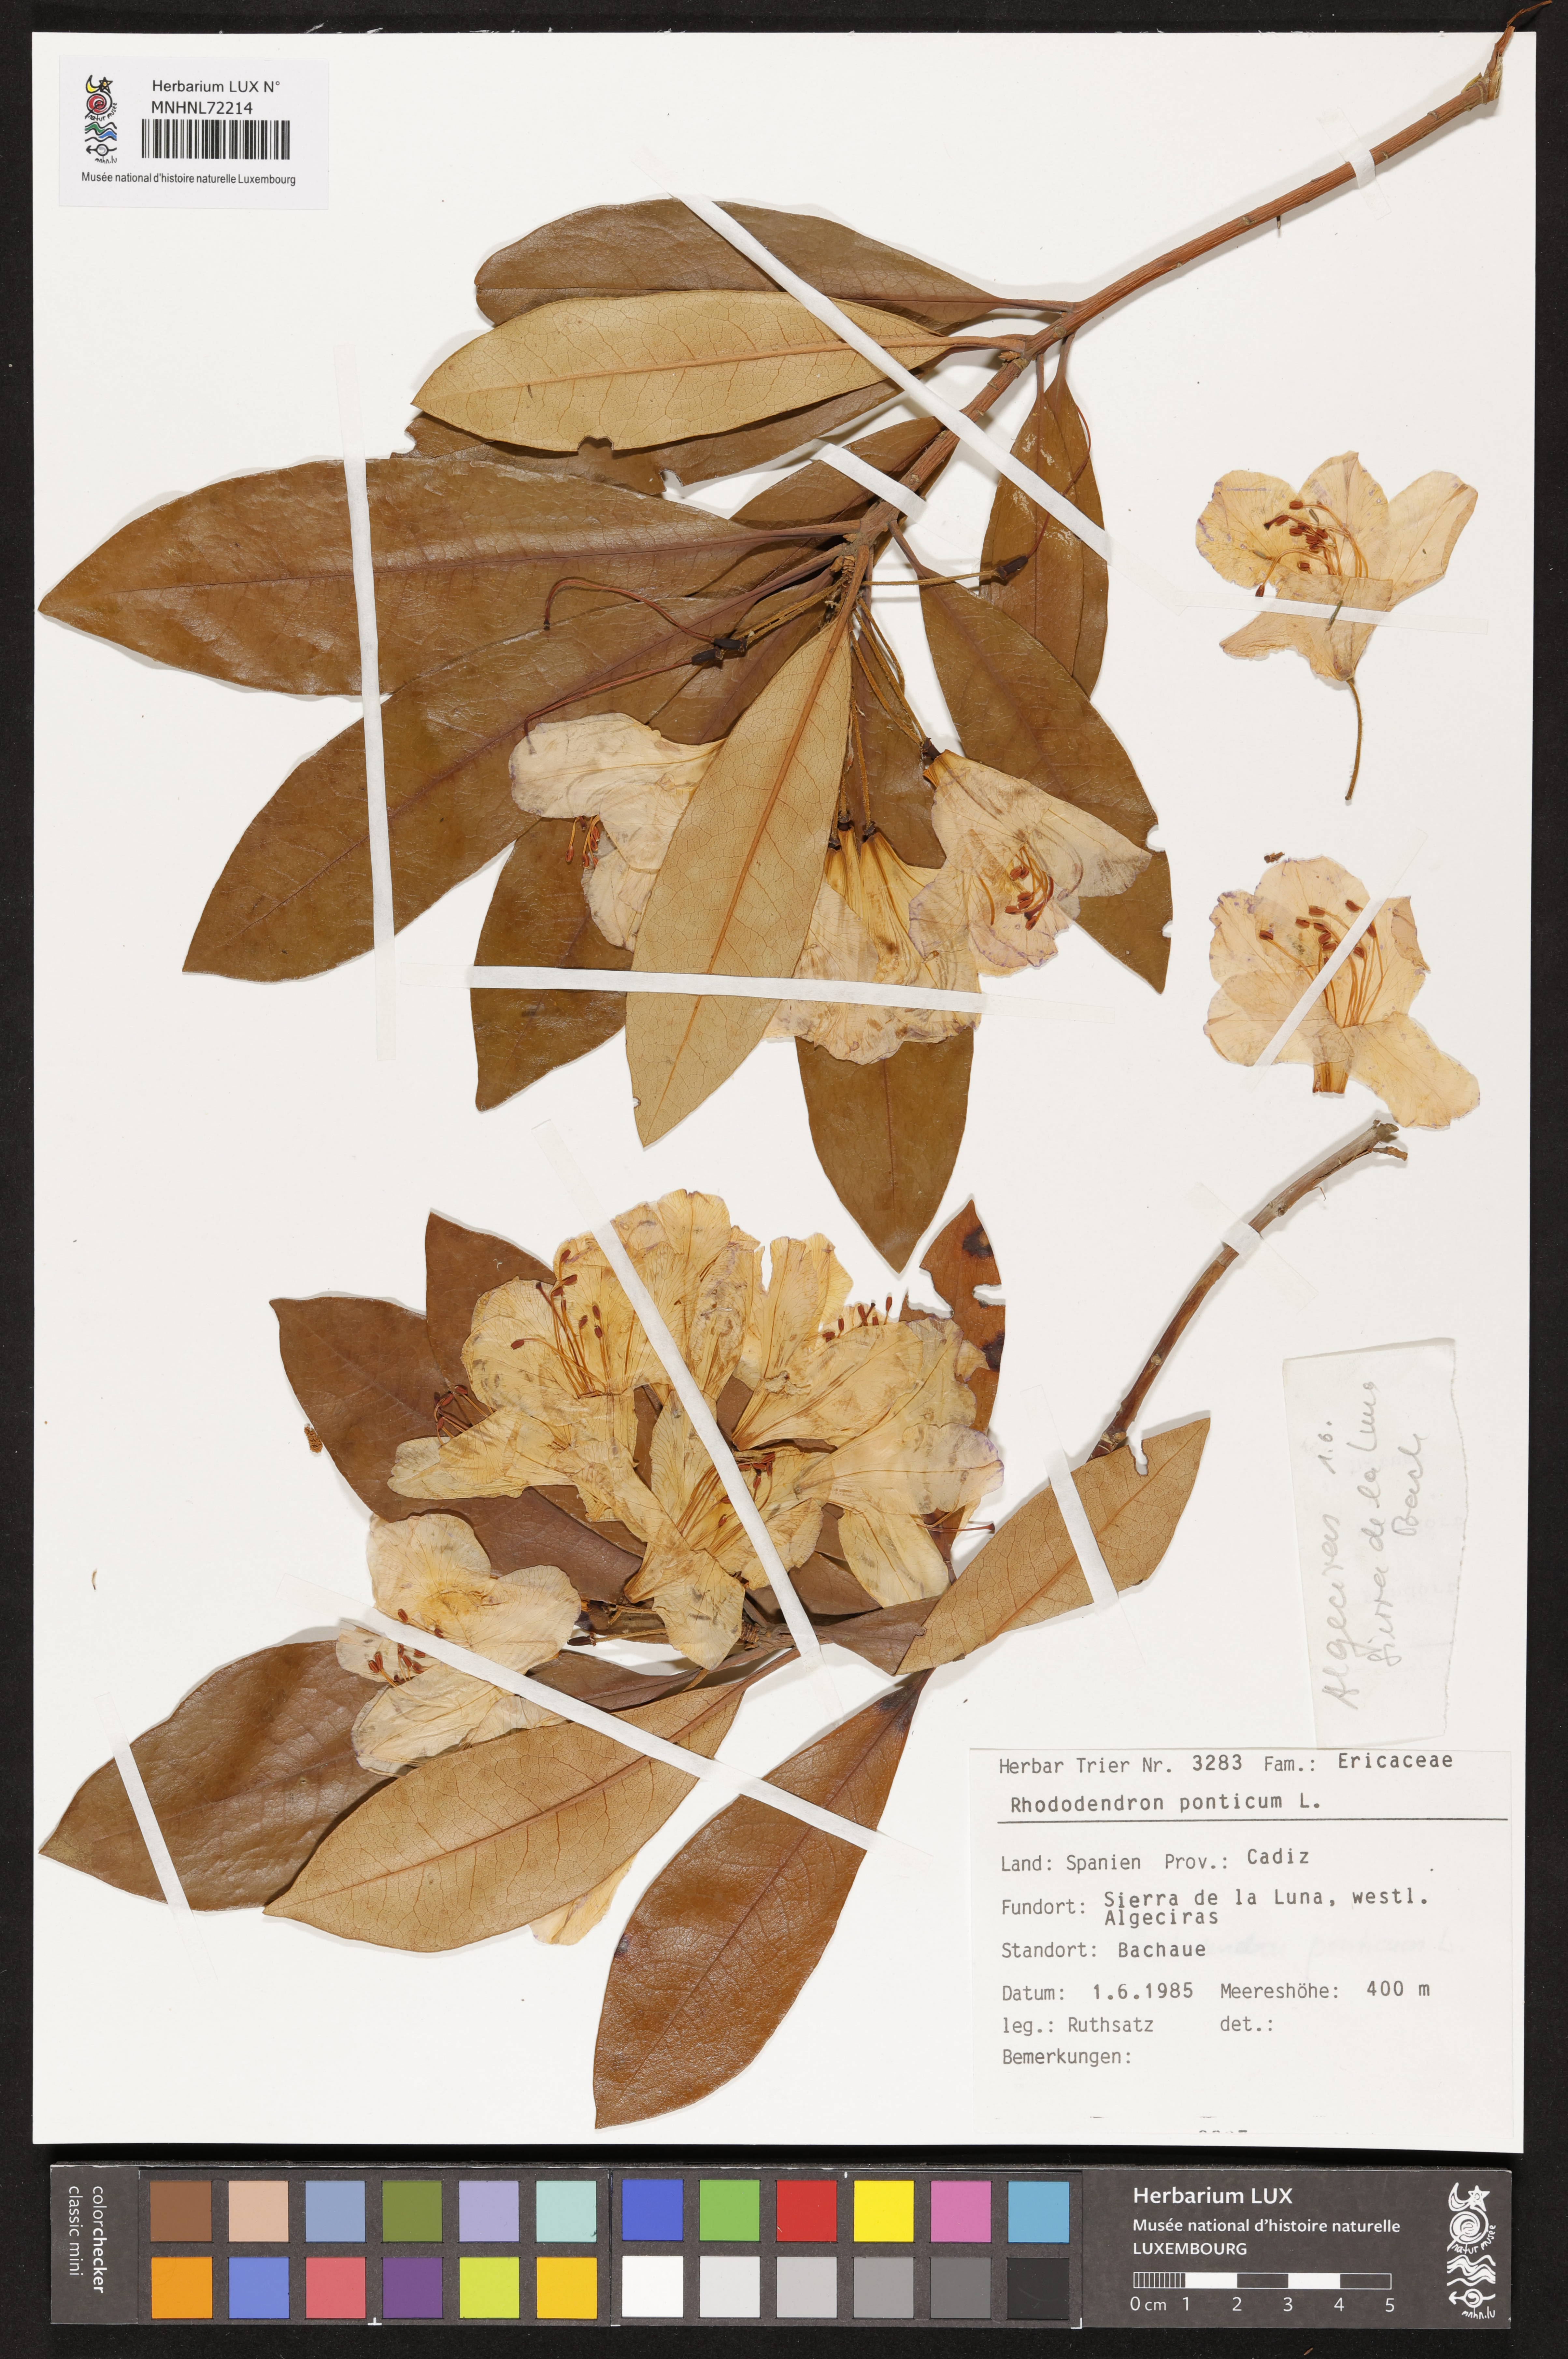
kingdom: Plantae
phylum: Tracheophyta
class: Magnoliopsida
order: Ericales
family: Ericaceae
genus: Rhododendron
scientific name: Rhododendron ponticum
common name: Rhododendron
